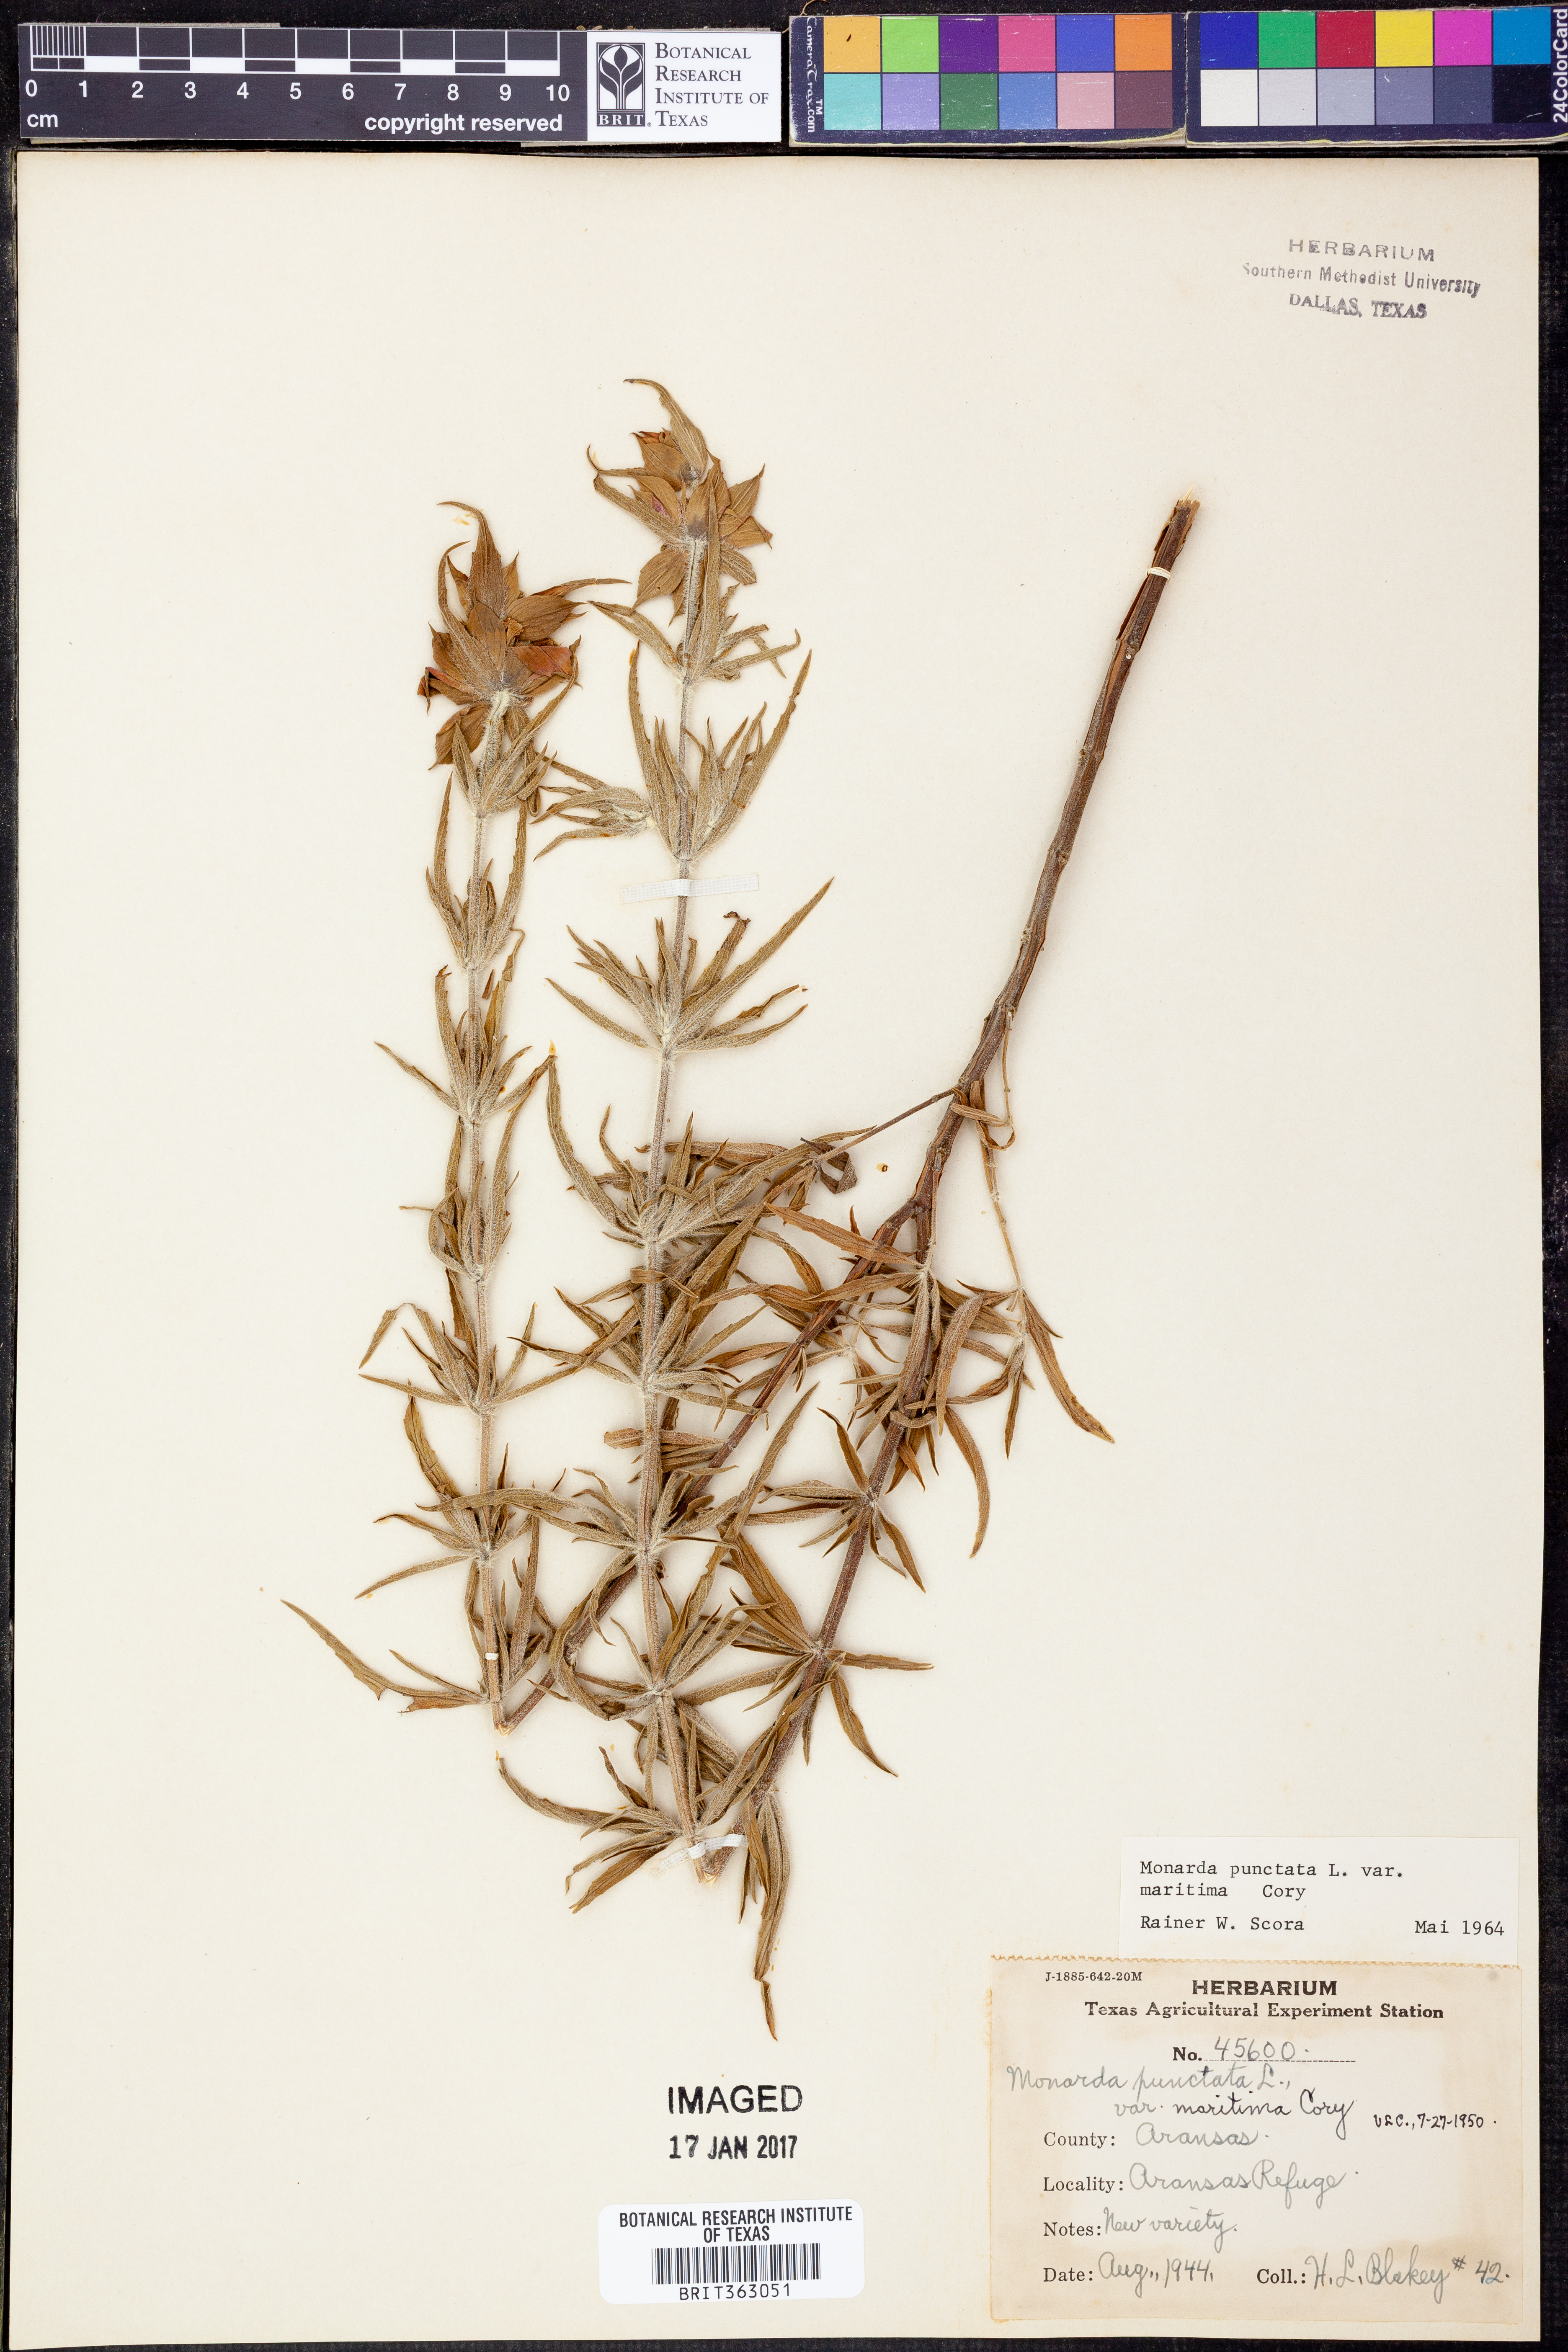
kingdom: Plantae
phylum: Tracheophyta
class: Magnoliopsida
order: Lamiales
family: Lamiaceae
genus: Monarda
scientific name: Monarda maritima
